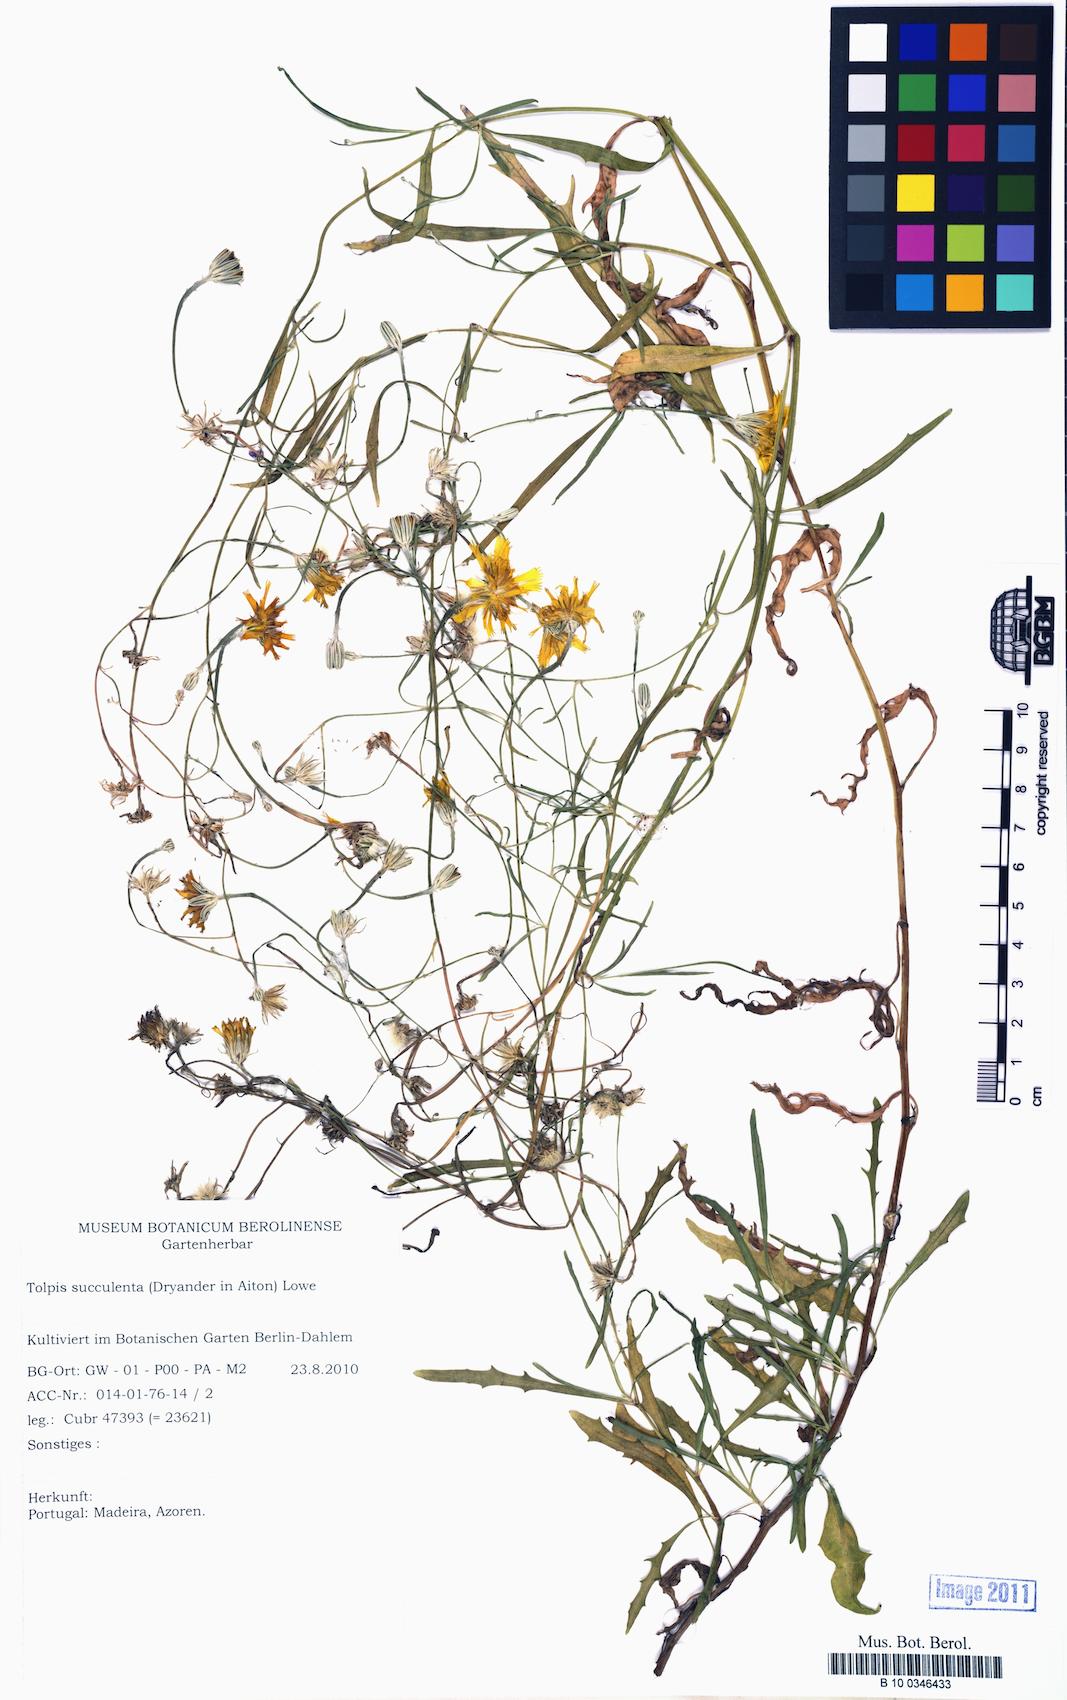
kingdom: Plantae
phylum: Tracheophyta
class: Magnoliopsida
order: Asterales
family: Asteraceae
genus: Tolpis
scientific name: Tolpis succulenta
